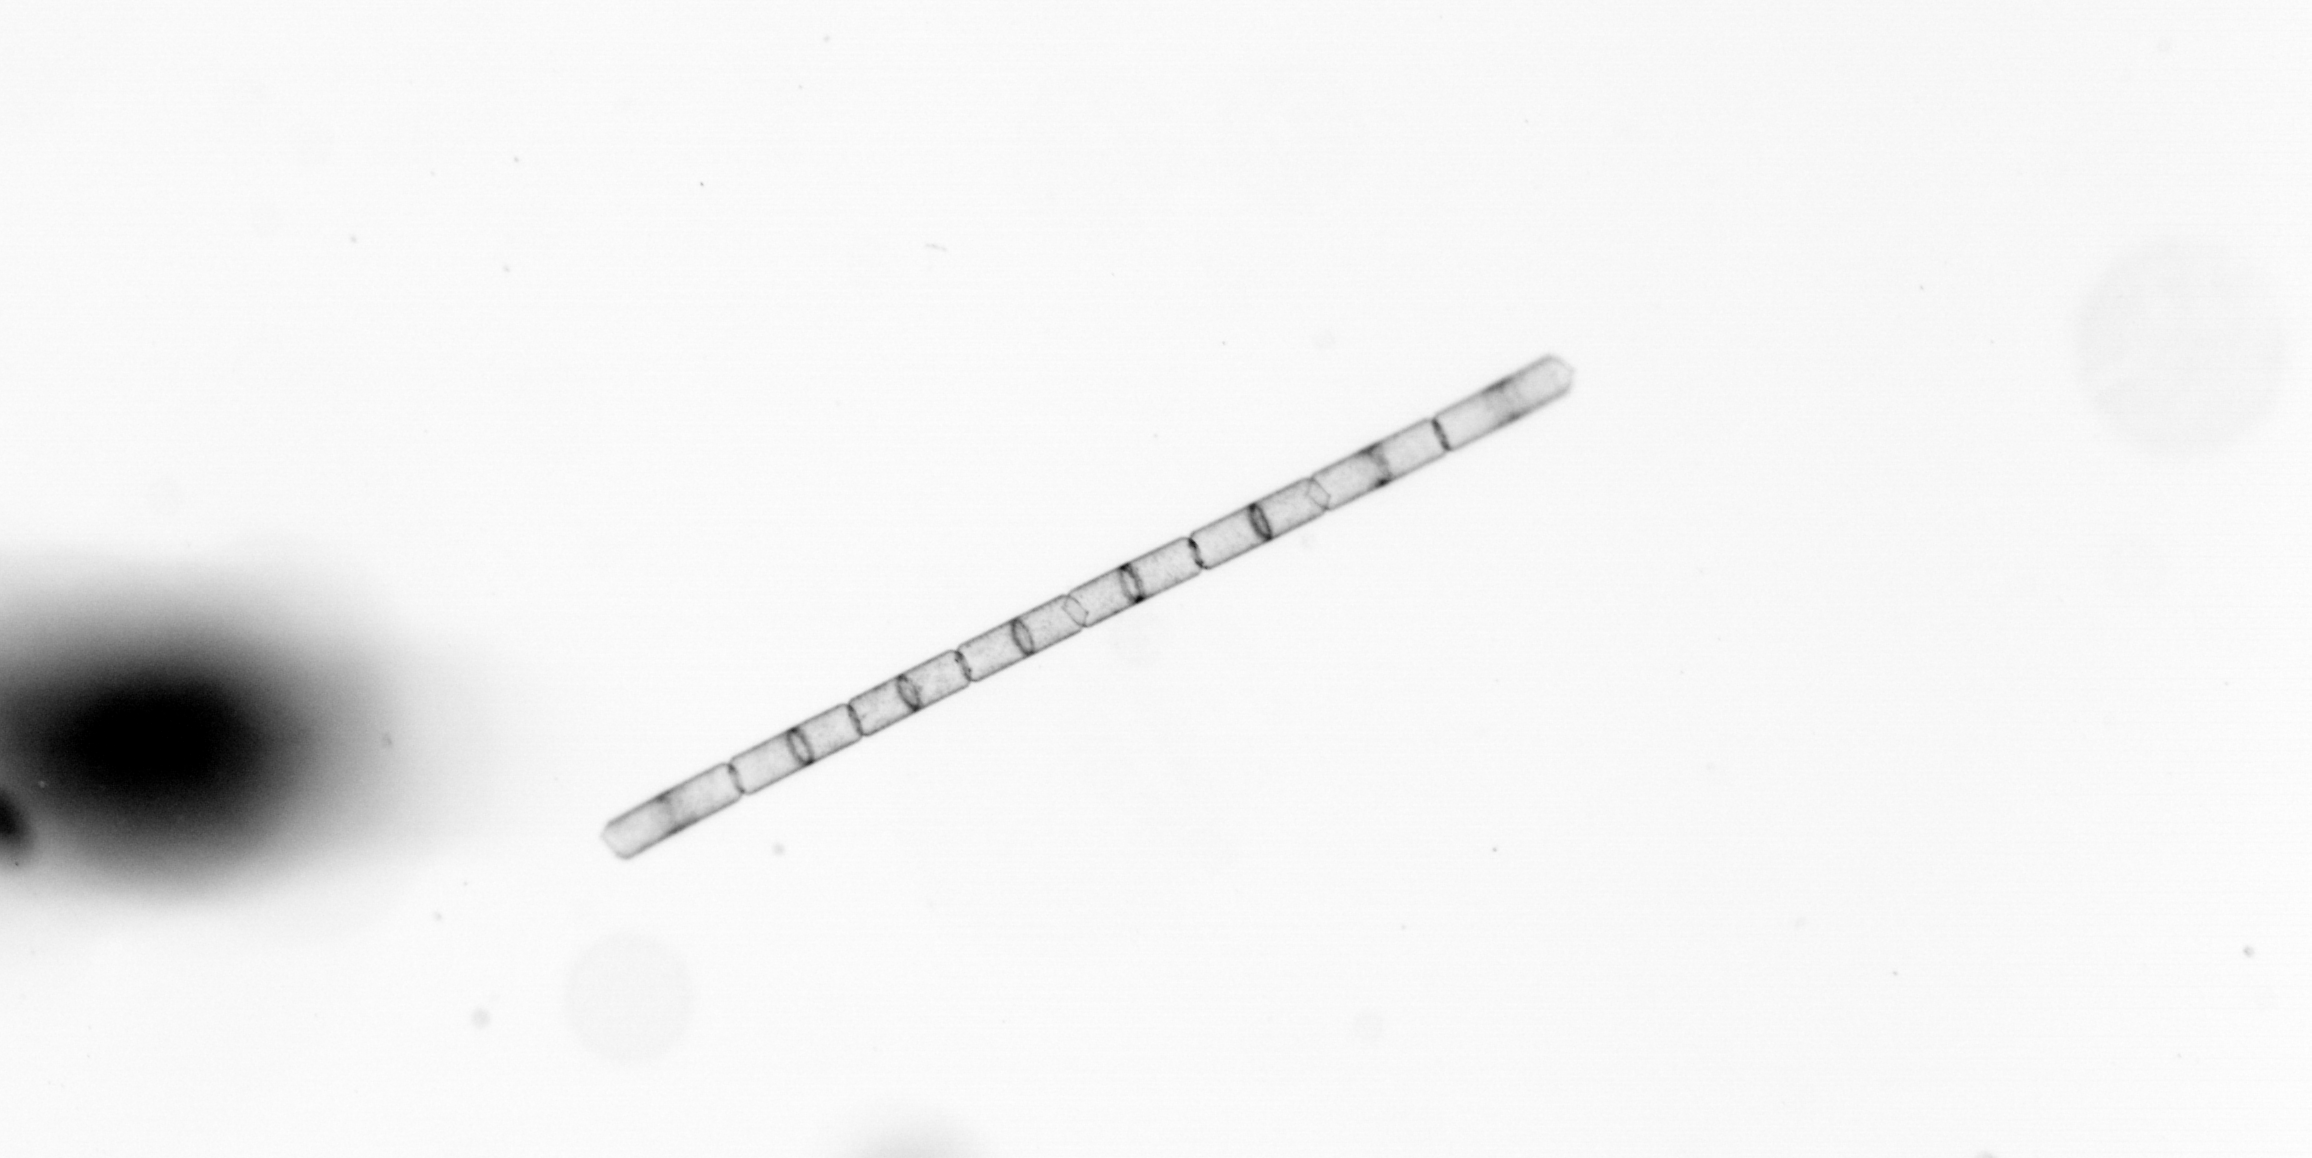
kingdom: Chromista
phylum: Ochrophyta
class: Bacillariophyceae
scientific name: Bacillariophyceae
